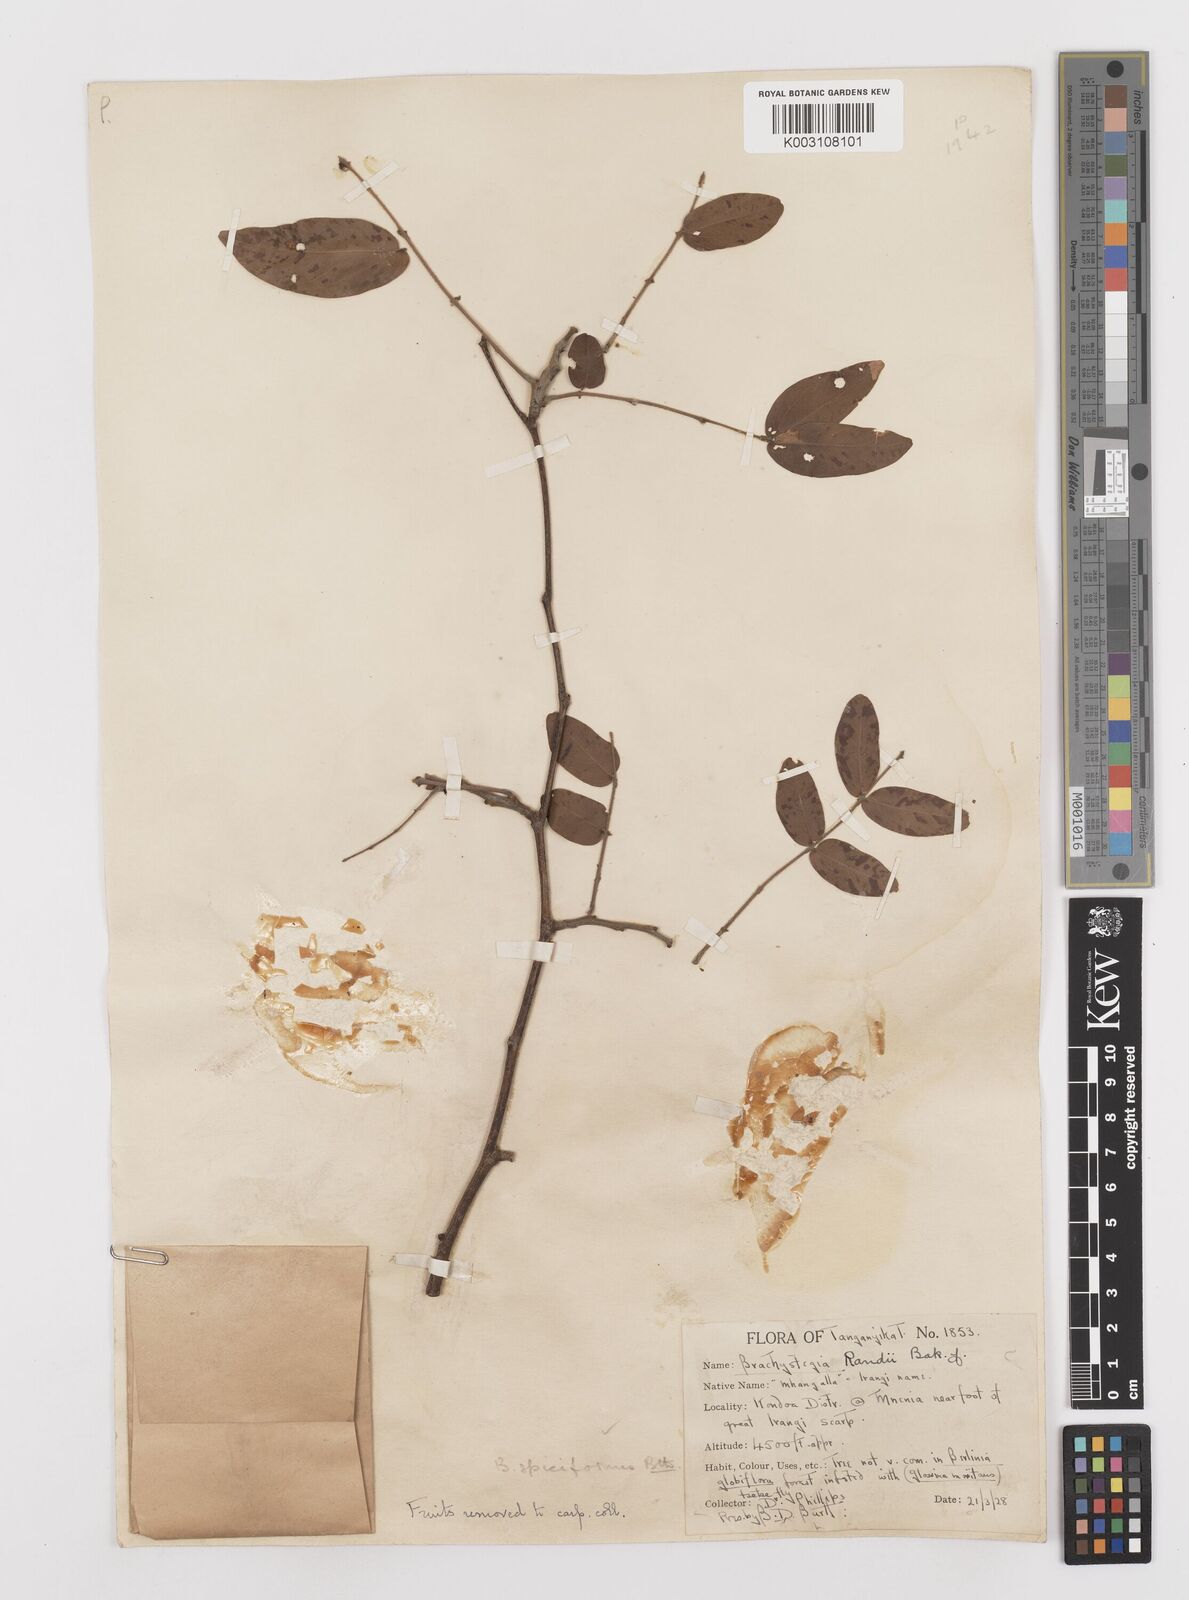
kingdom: Plantae
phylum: Tracheophyta
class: Magnoliopsida
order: Fabales
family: Fabaceae
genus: Brachystegia
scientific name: Brachystegia spiciformis
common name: Zebrawood
